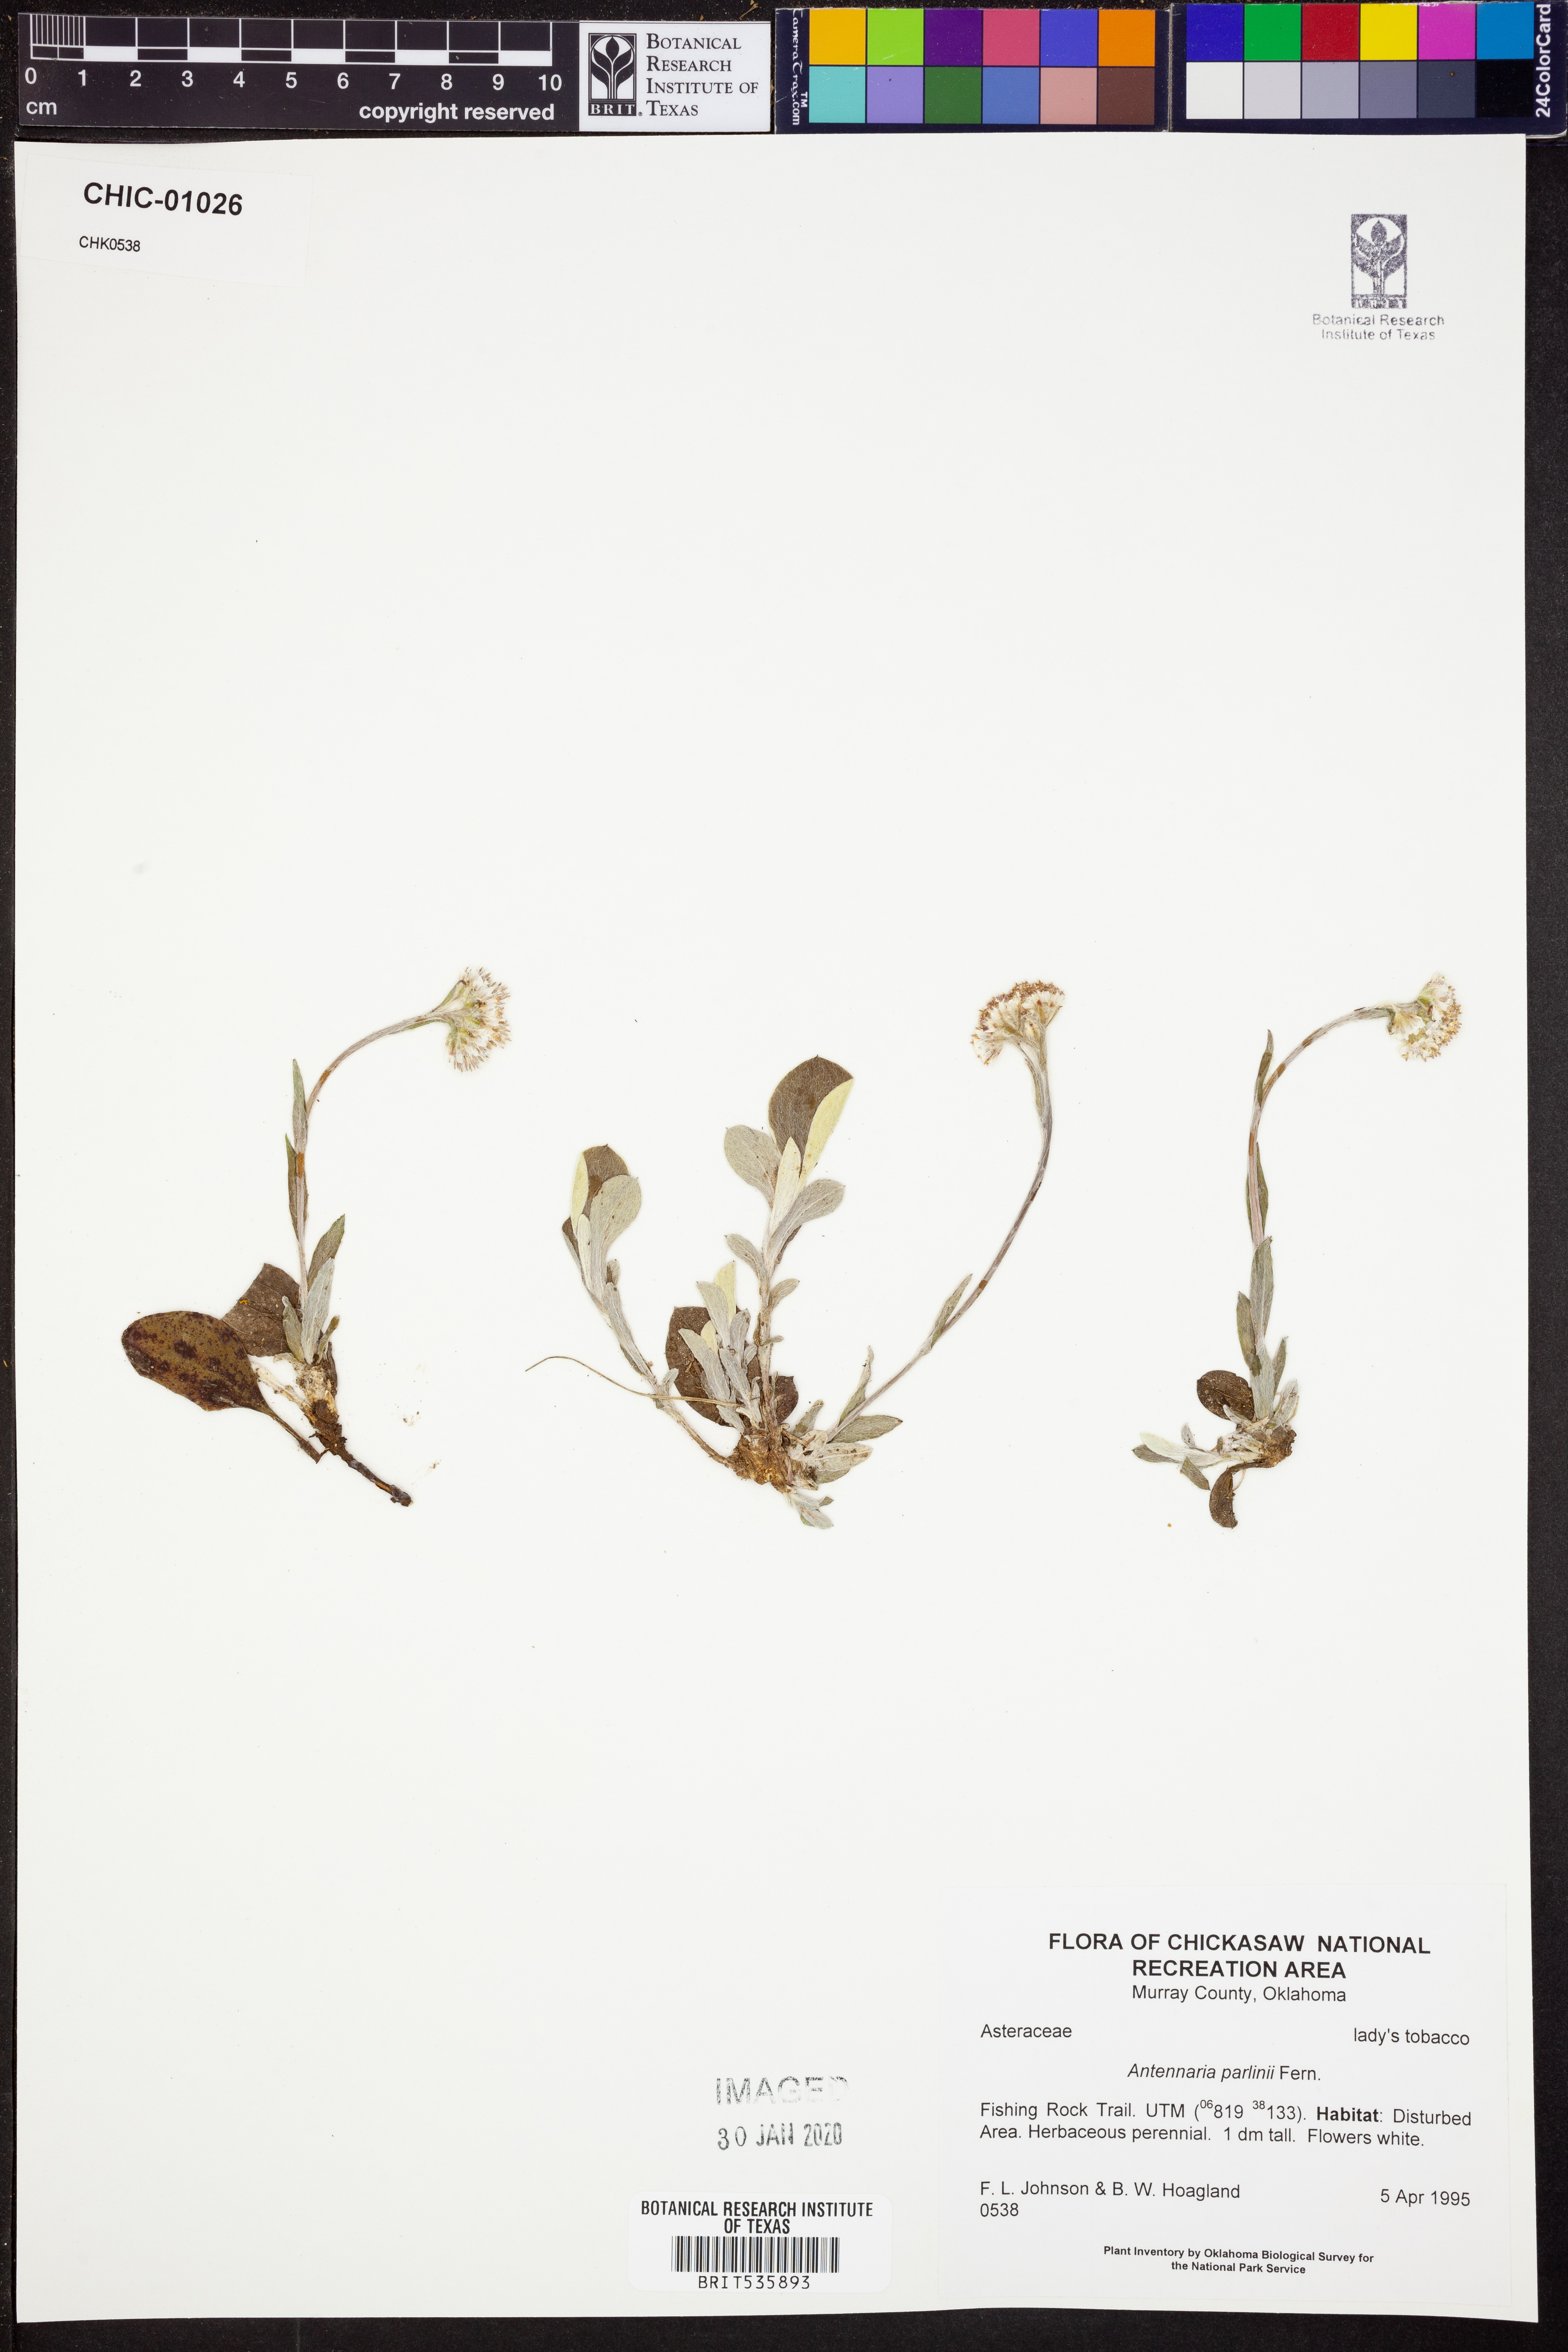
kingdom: Plantae
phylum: Tracheophyta
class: Magnoliopsida
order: Asterales
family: Asteraceae
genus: Antennaria
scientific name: Antennaria parlinii
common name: Parlin's pussytoes
